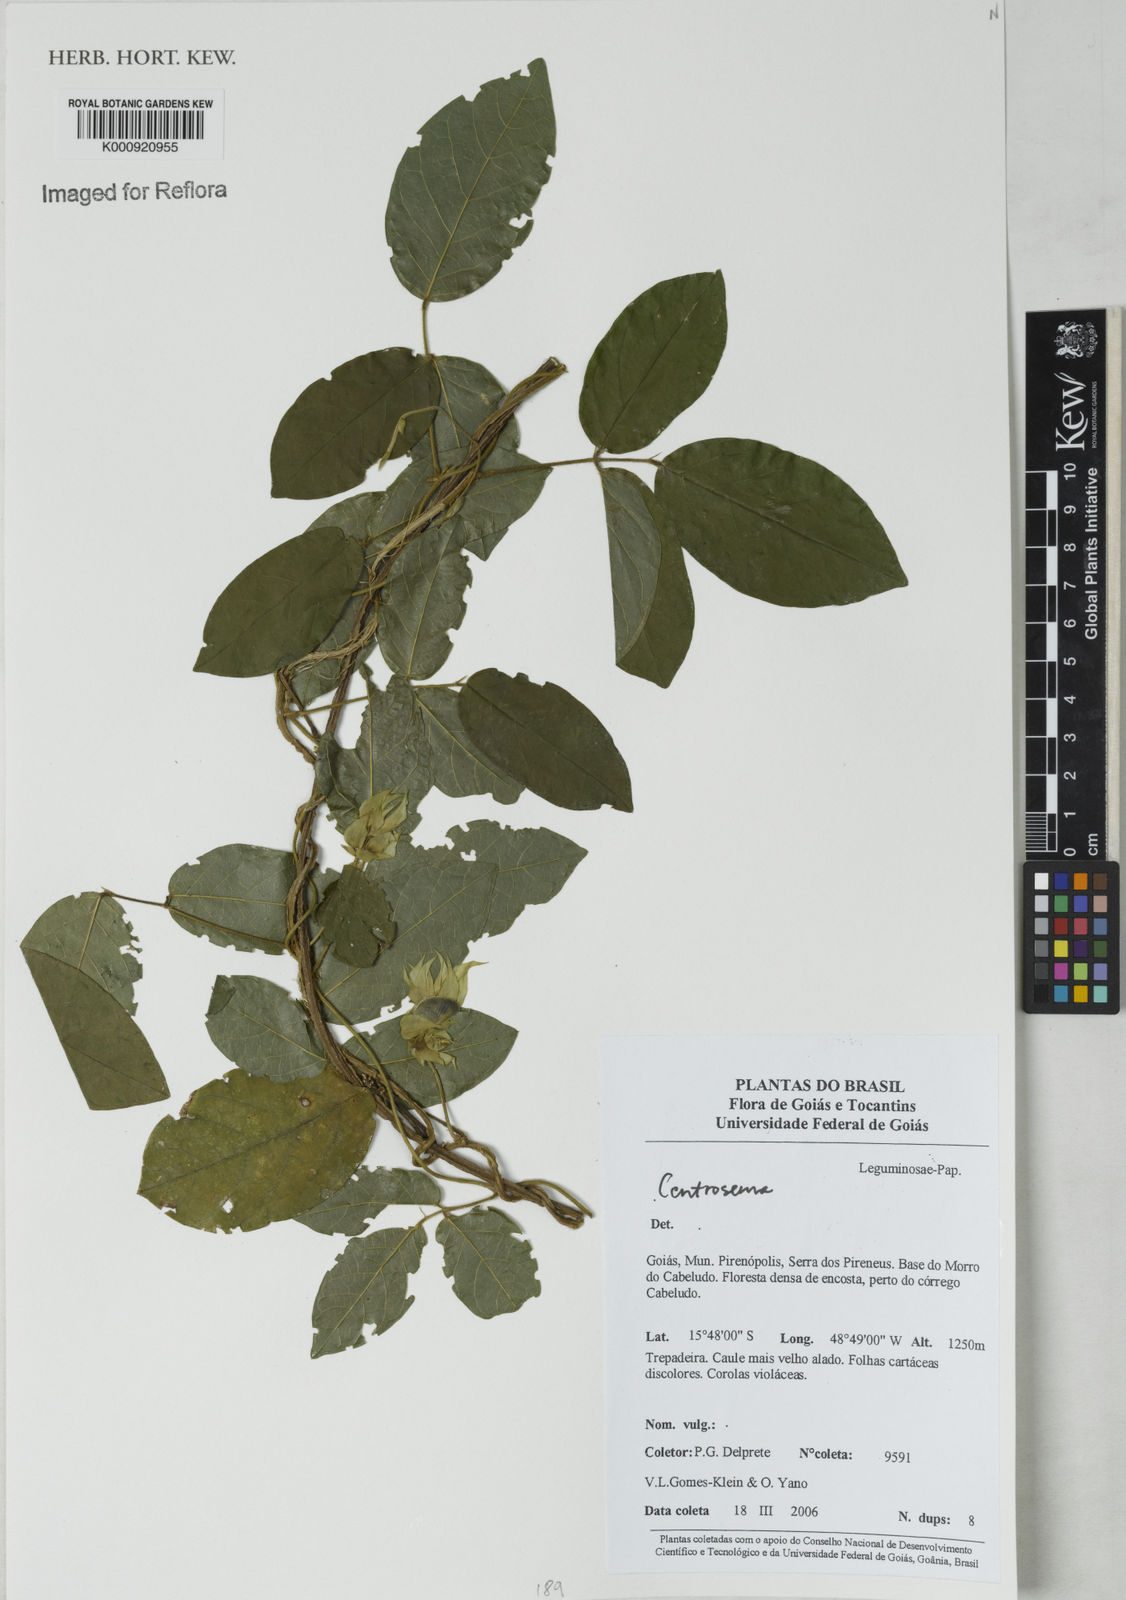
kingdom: Plantae
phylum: Tracheophyta
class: Magnoliopsida
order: Fabales
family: Fabaceae
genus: Centrosema
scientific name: Centrosema
